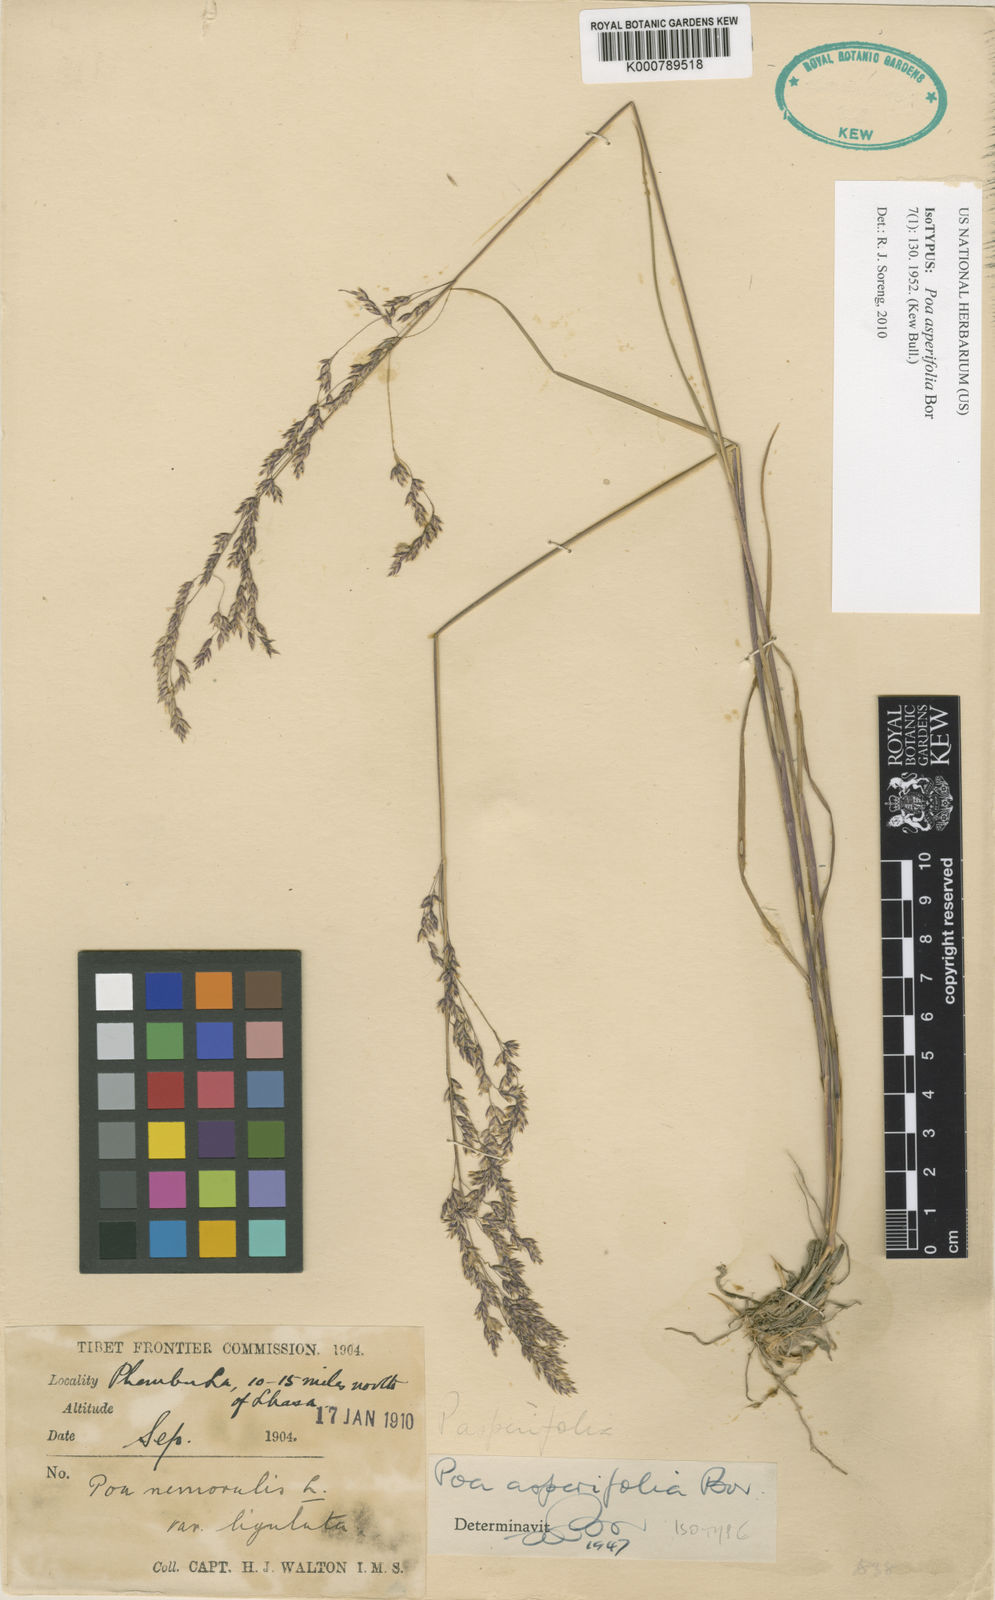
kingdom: Plantae
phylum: Tracheophyta
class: Liliopsida
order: Poales
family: Poaceae
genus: Poa
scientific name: Poa asperifolia
